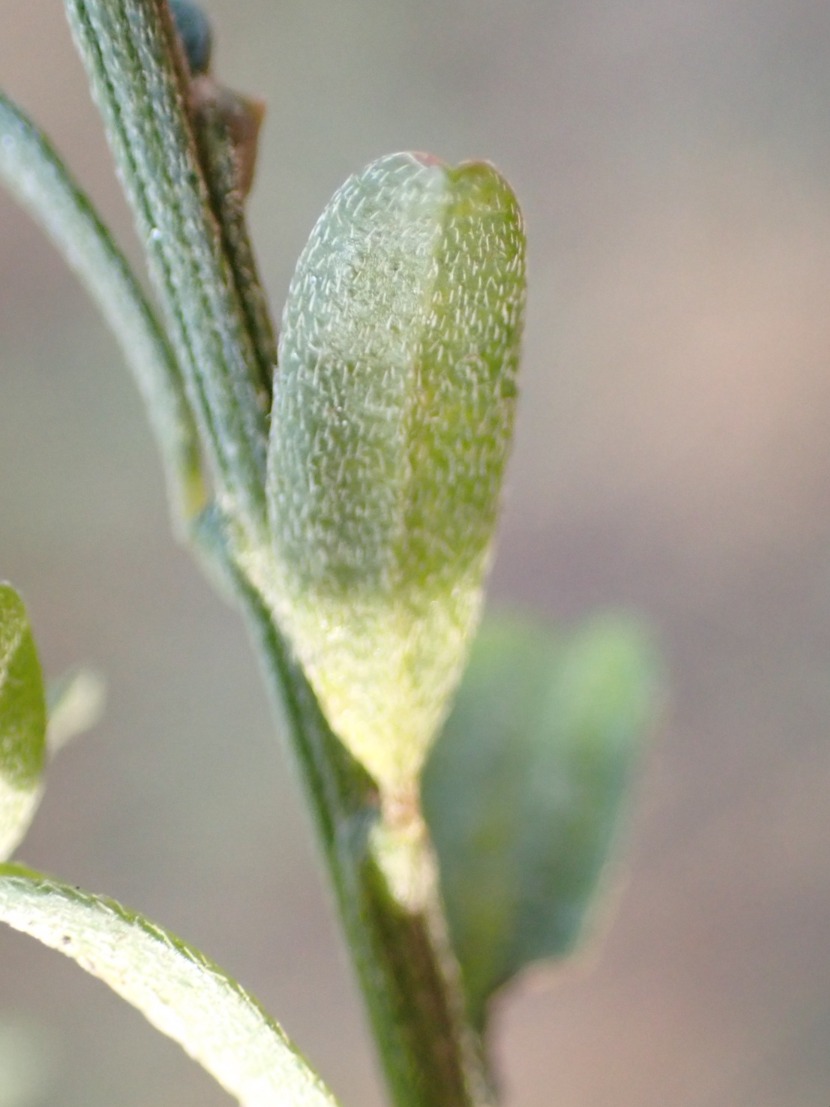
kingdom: Plantae
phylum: Tracheophyta
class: Magnoliopsida
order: Fabales
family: Fabaceae
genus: Genista
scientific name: Genista pilosa
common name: Håret visse
